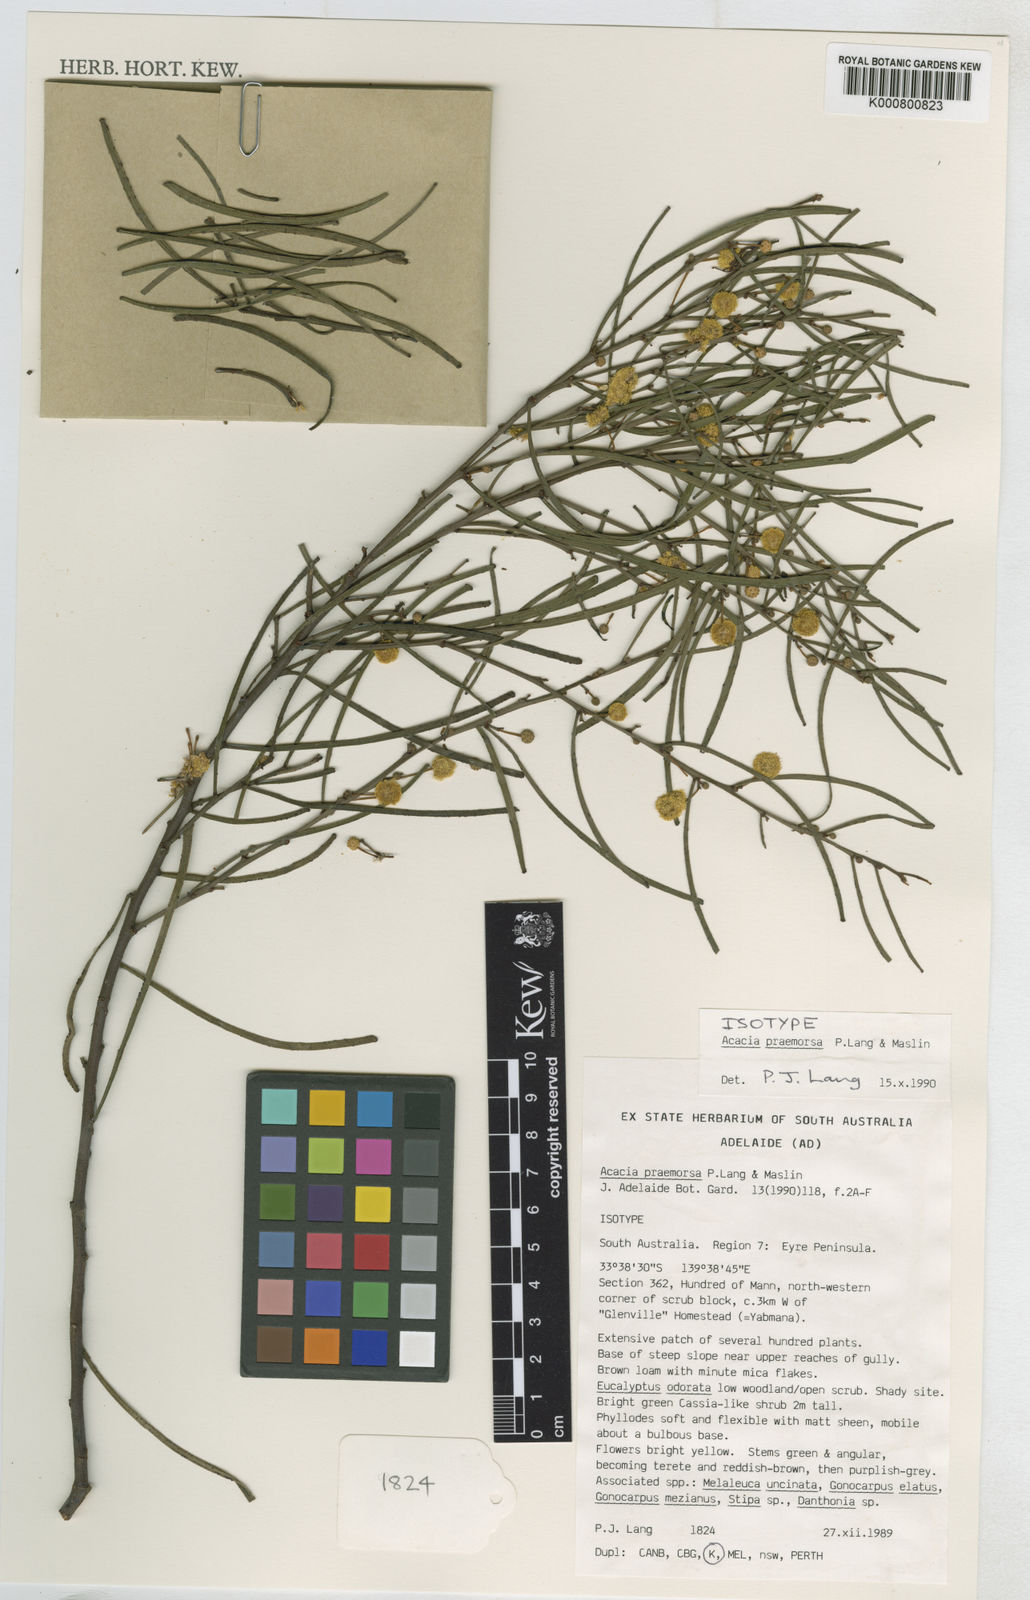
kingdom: Plantae
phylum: Tracheophyta
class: Magnoliopsida
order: Fabales
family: Fabaceae
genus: Acacia
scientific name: Acacia praemorsa
